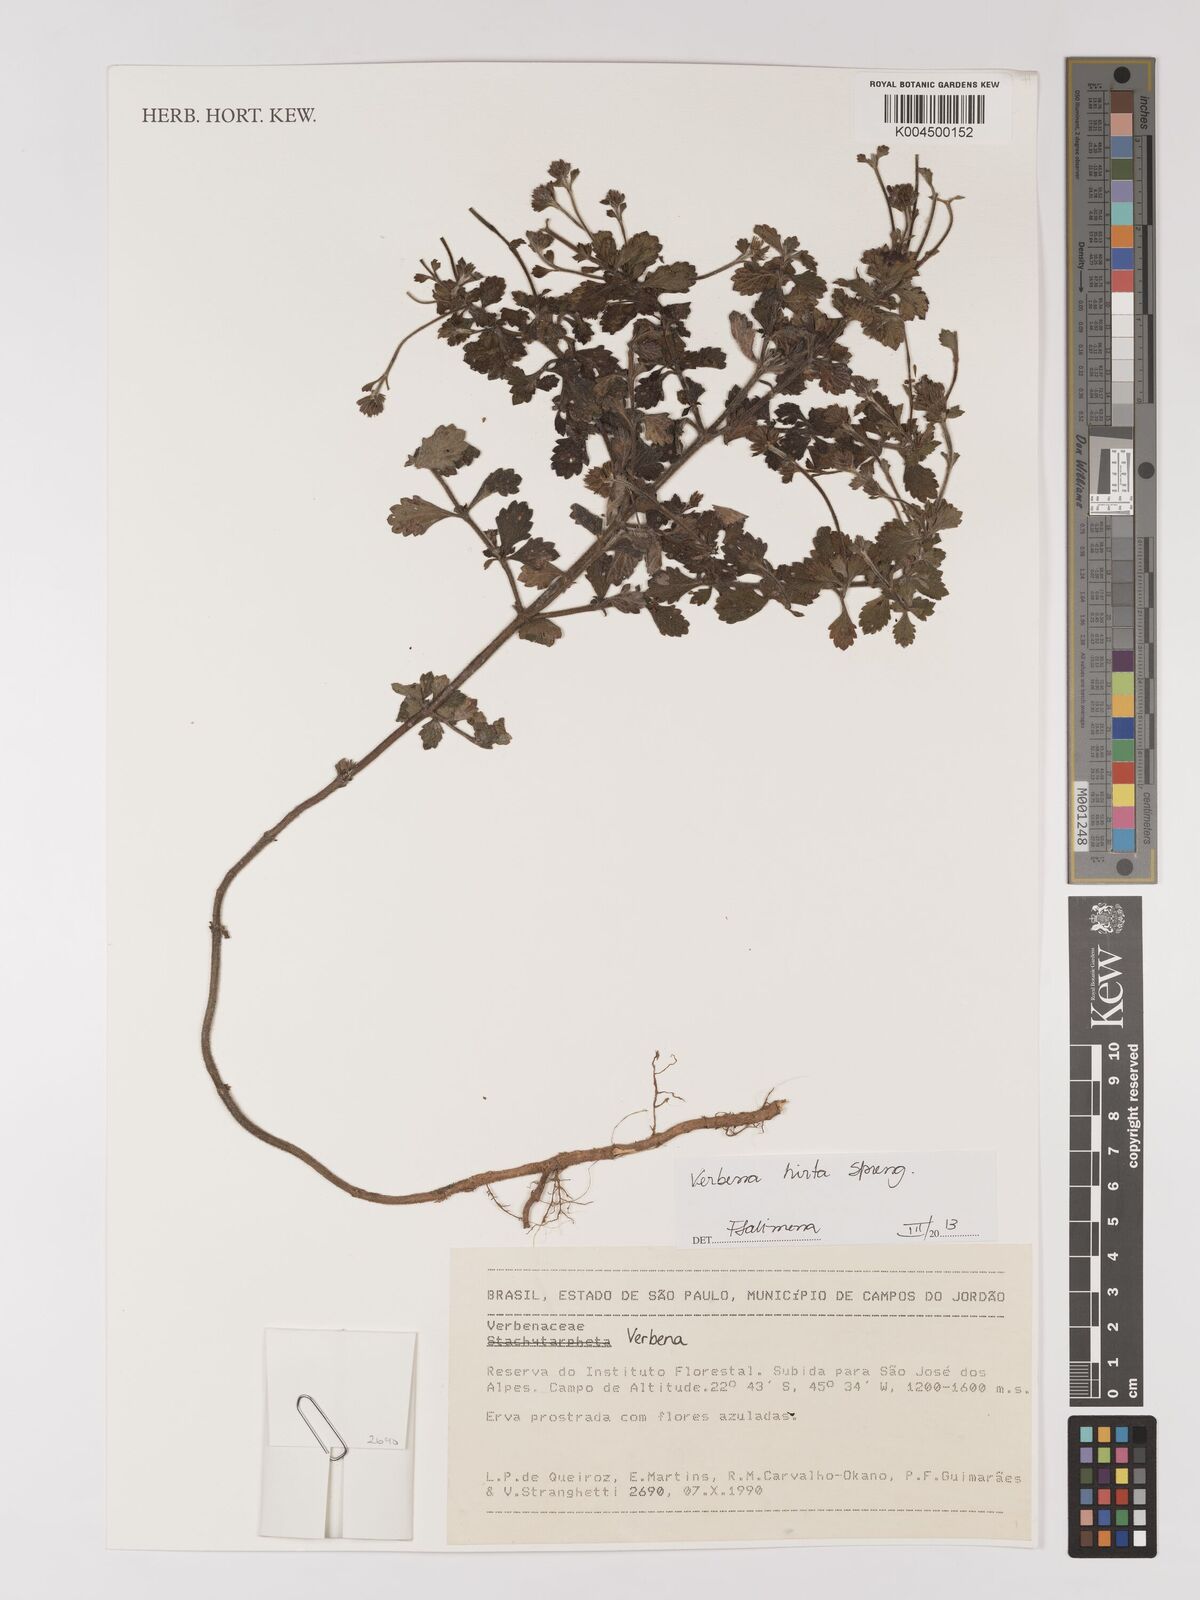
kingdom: Plantae
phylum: Tracheophyta
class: Magnoliopsida
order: Lamiales
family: Verbenaceae
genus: Verbena
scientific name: Verbena hirta
